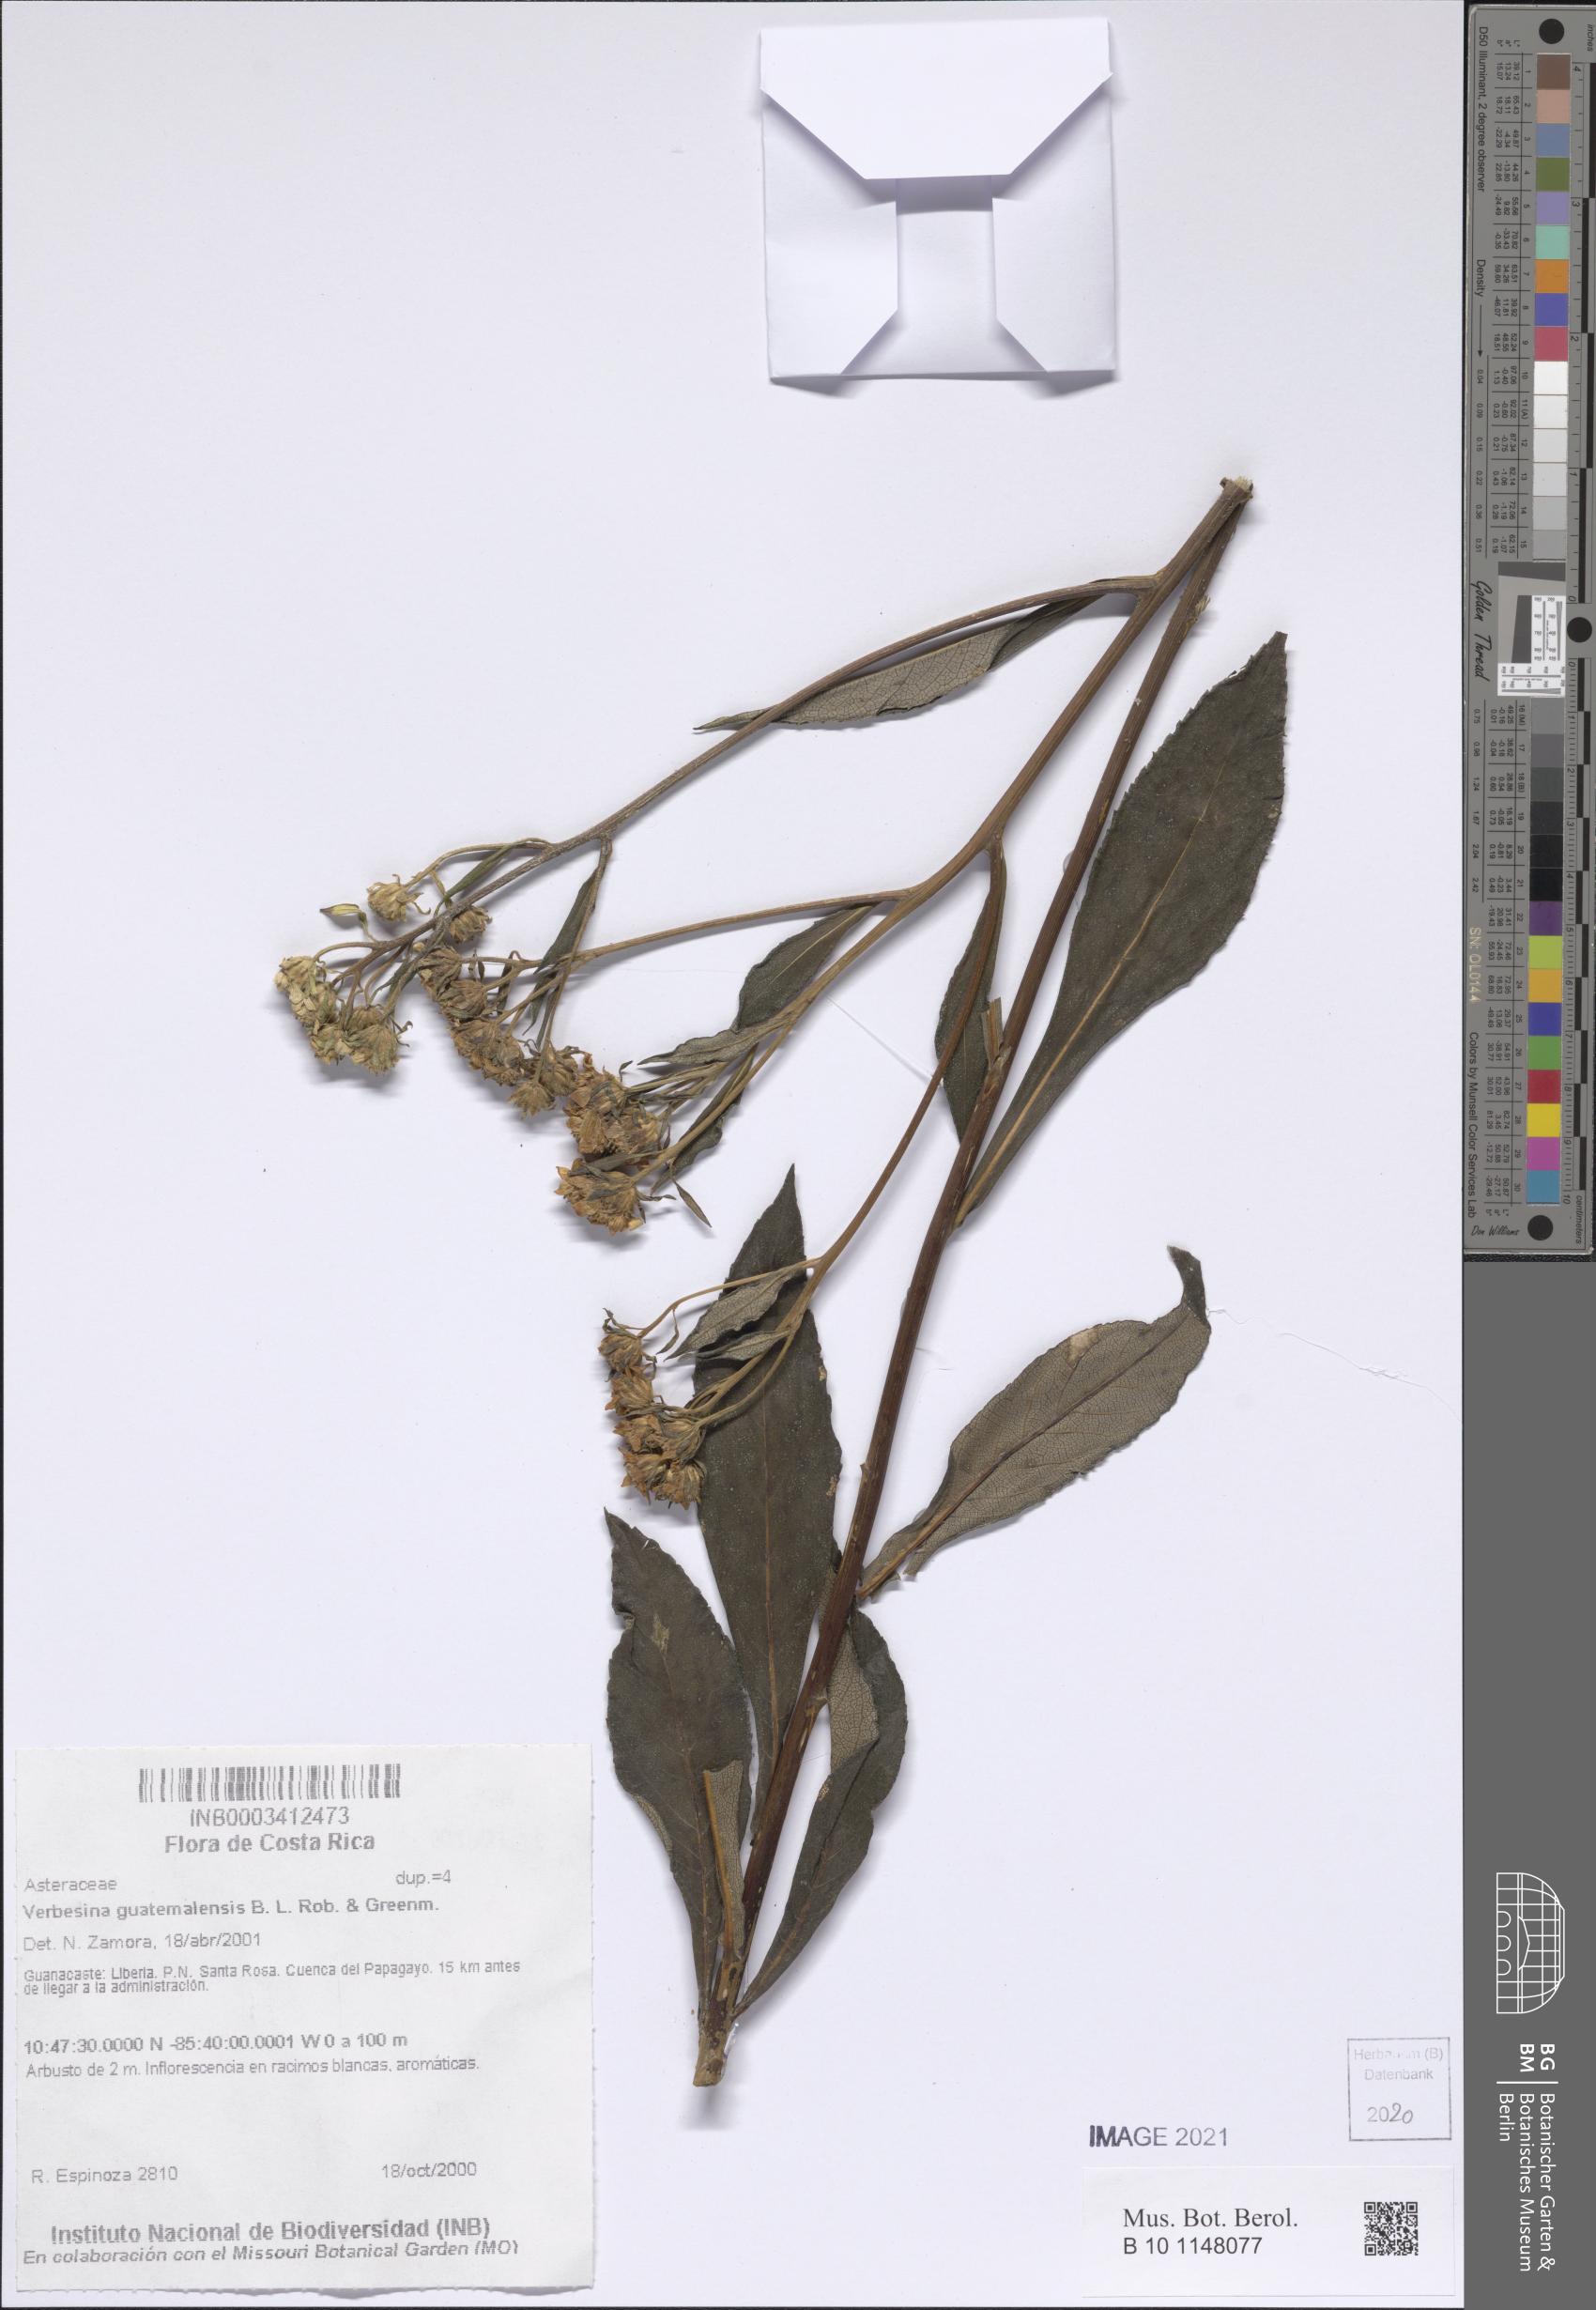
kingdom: Plantae
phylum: Tracheophyta
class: Magnoliopsida
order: Asterales
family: Asteraceae
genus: Verbesina
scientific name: Verbesina guatemalensis
